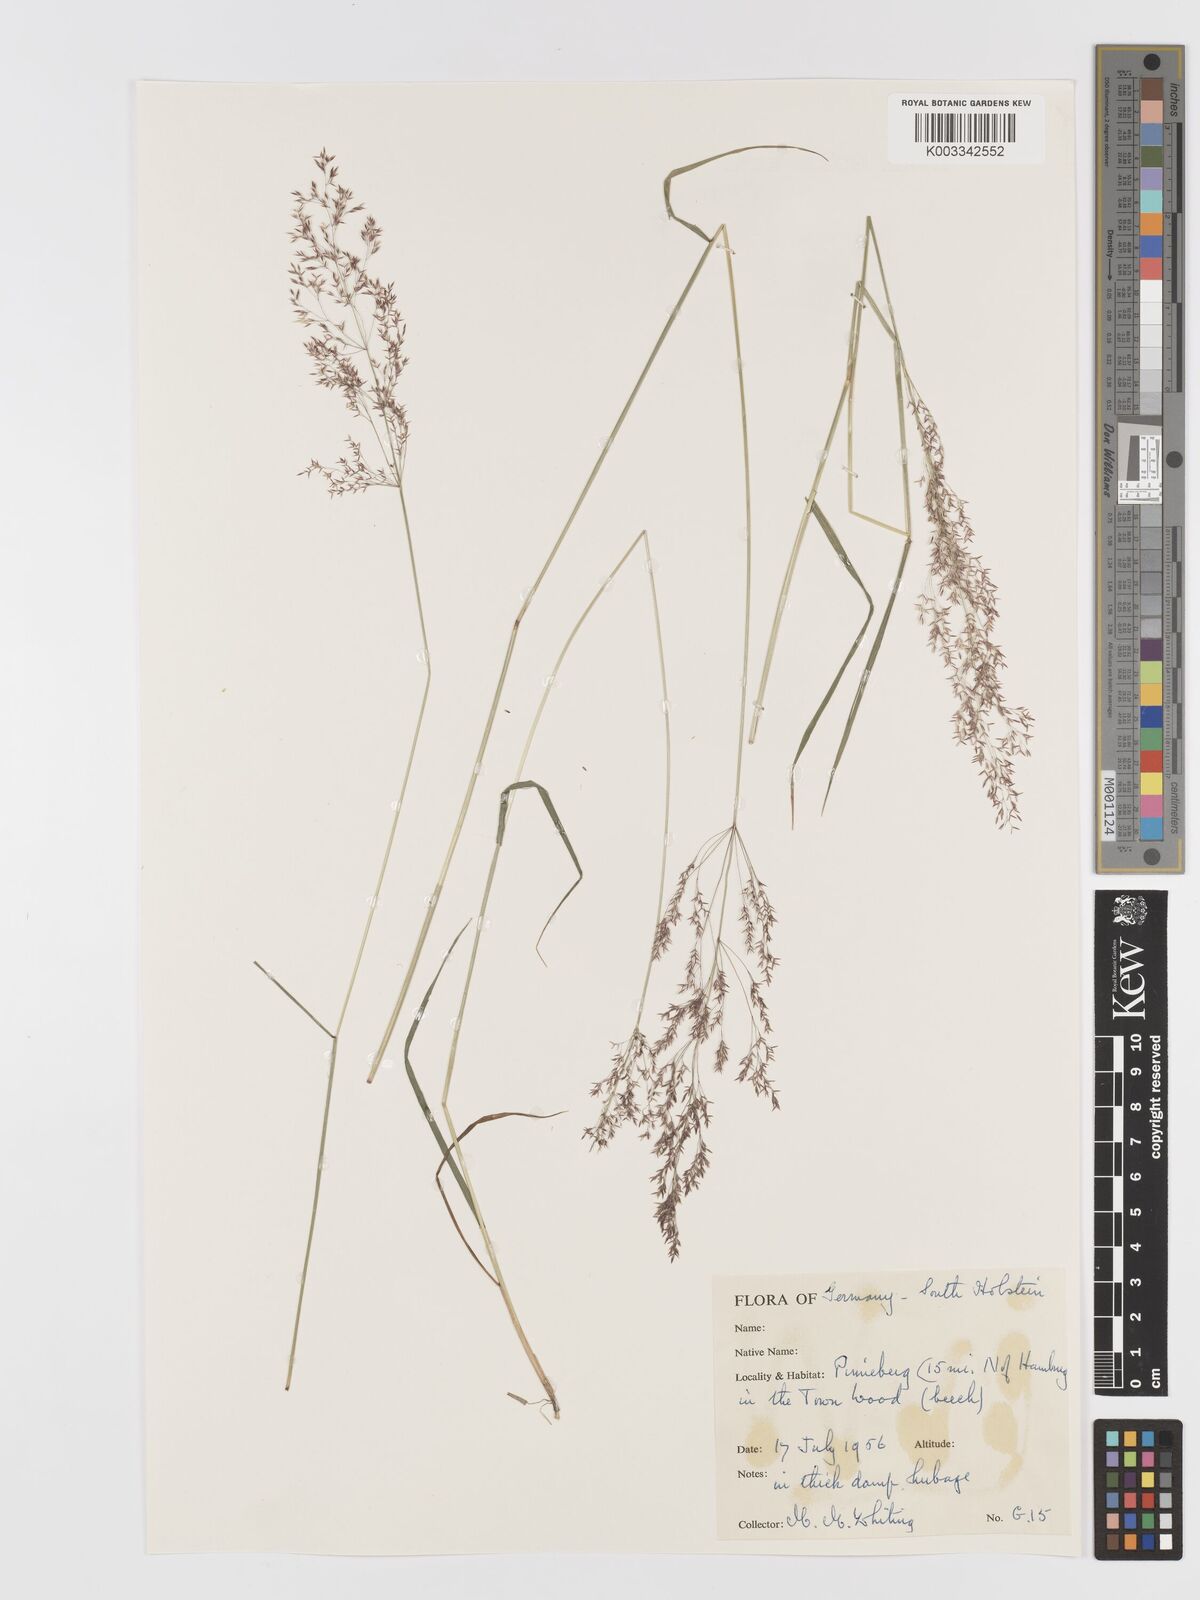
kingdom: Plantae
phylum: Tracheophyta
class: Liliopsida
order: Poales
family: Poaceae
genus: Agrostis
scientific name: Agrostis
